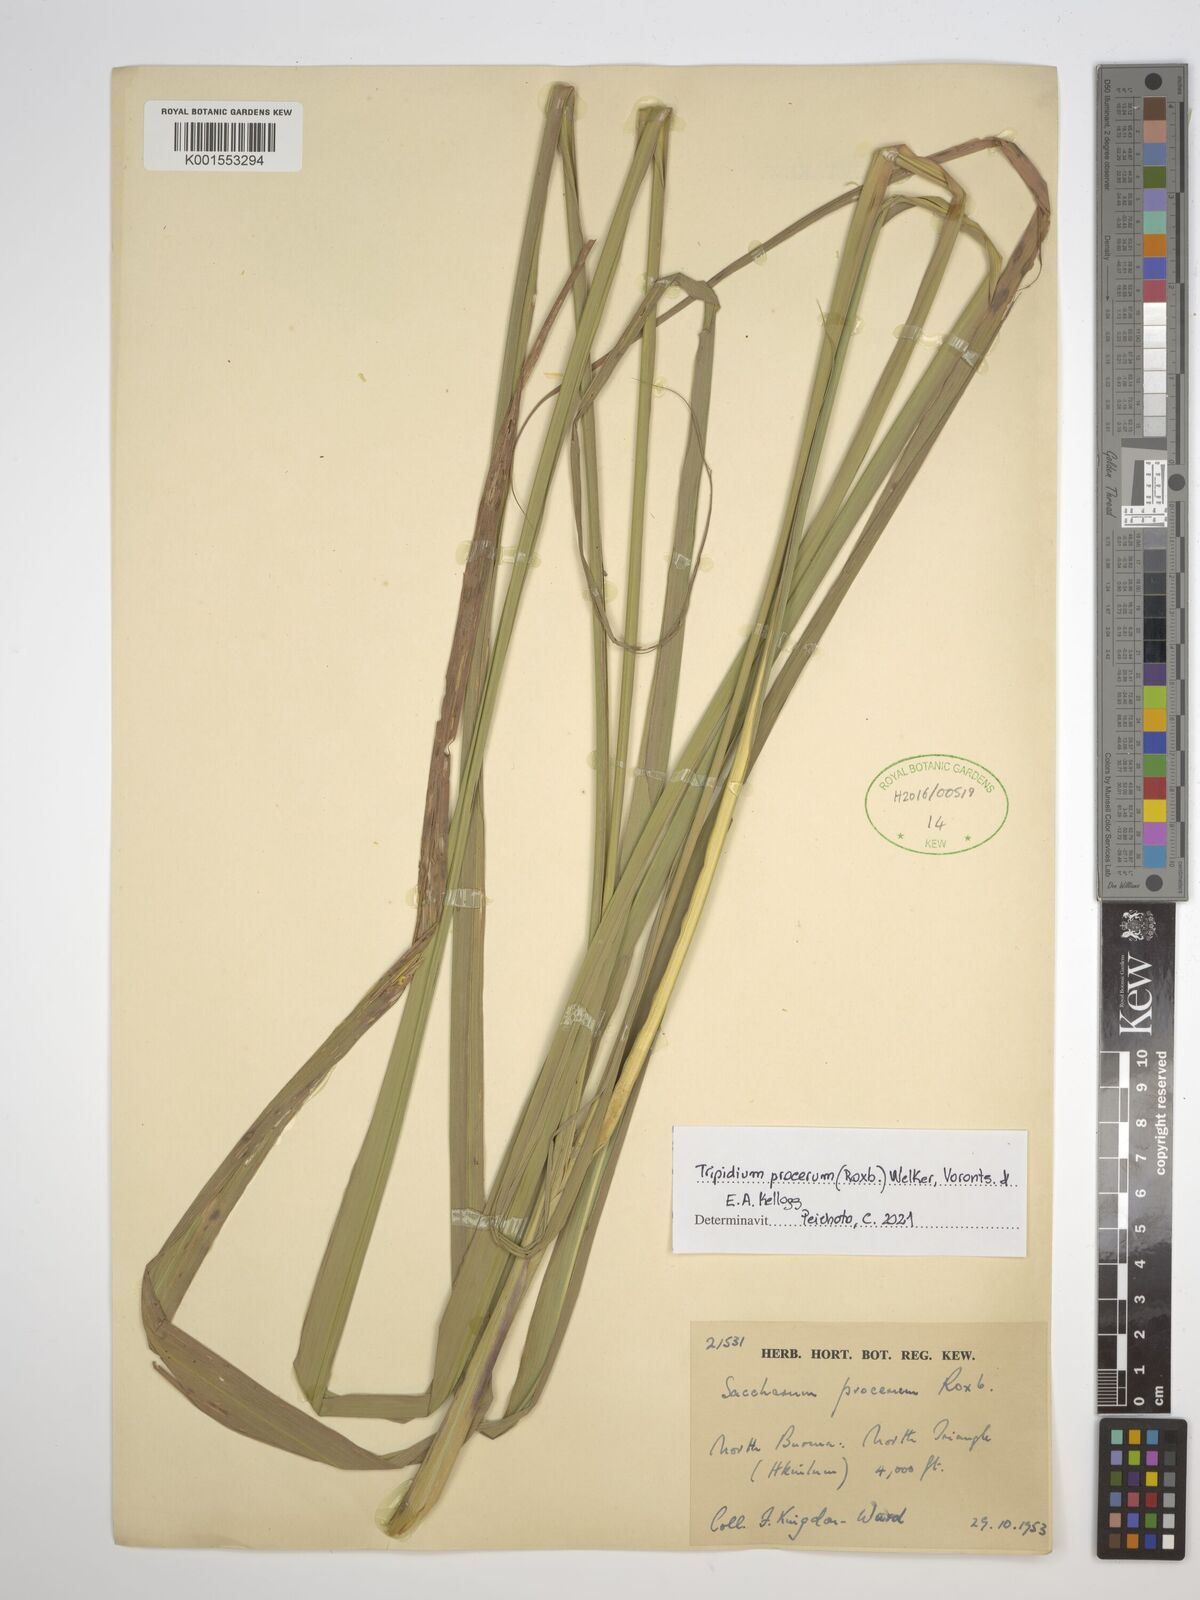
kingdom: Plantae
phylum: Tracheophyta
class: Liliopsida
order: Poales
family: Poaceae
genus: Tripidium
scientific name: Tripidium procerum
